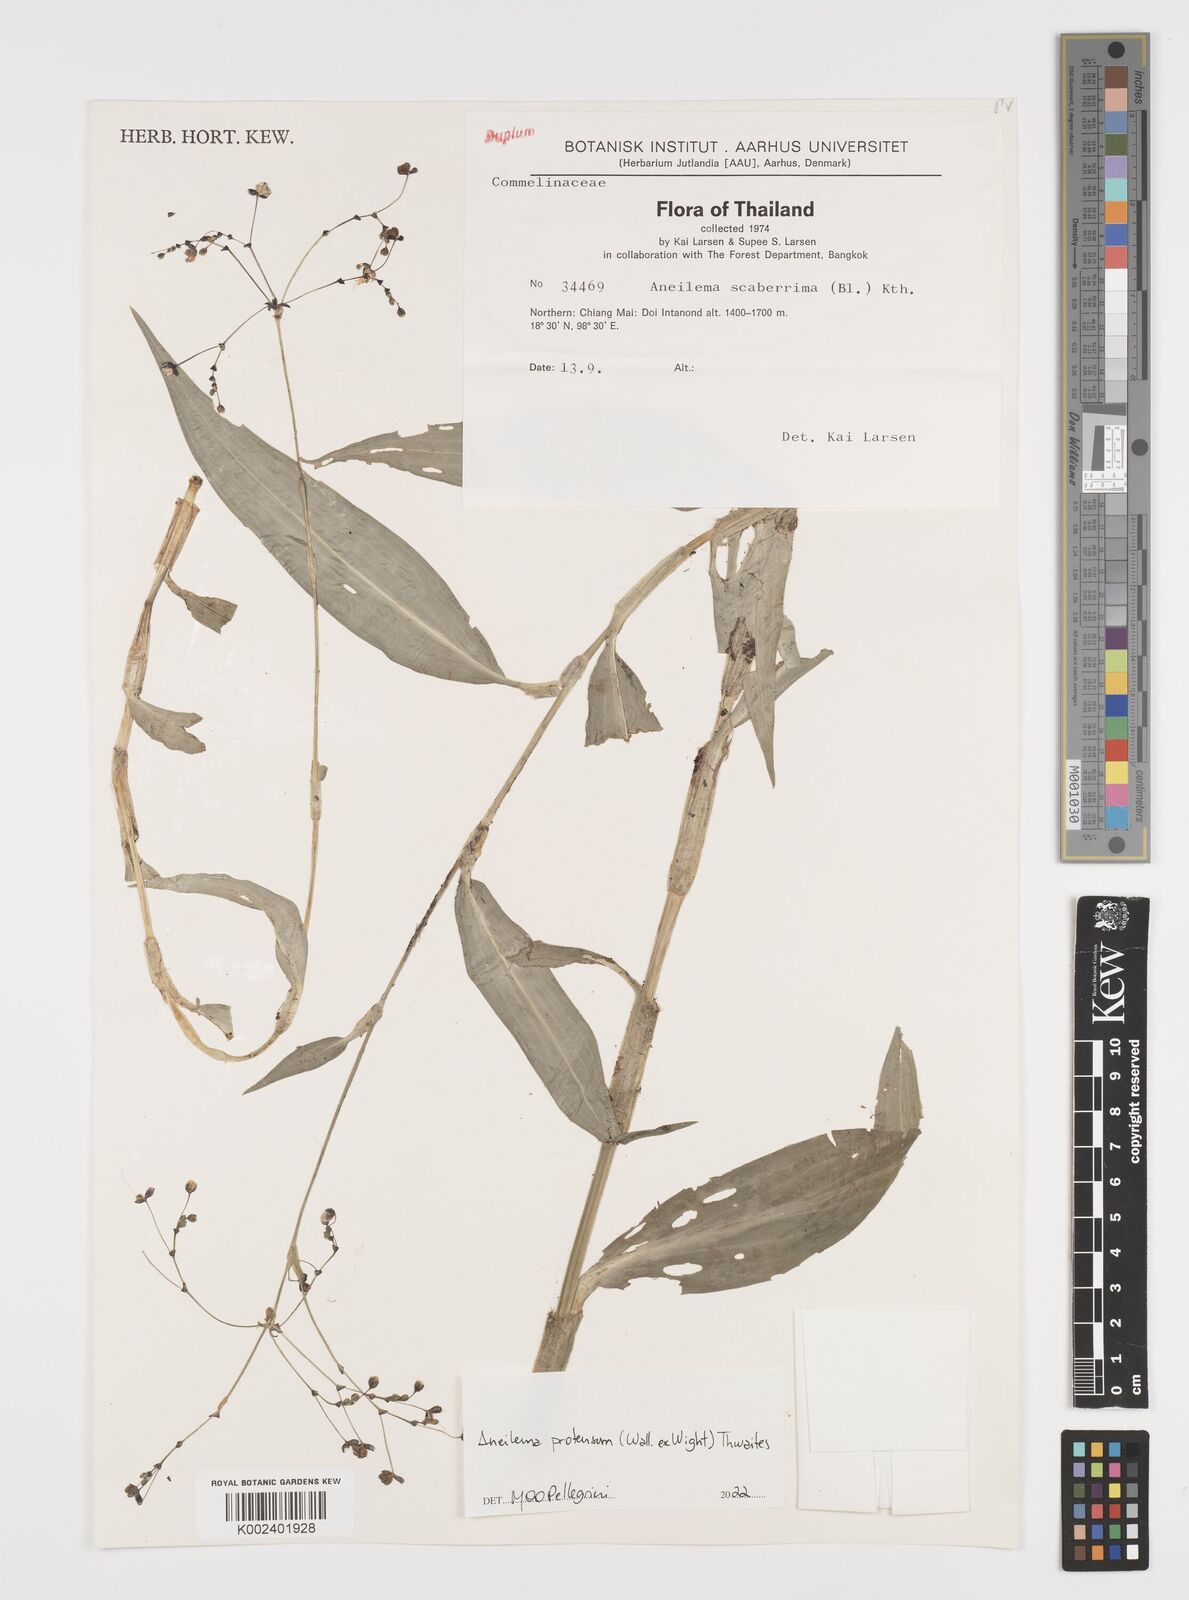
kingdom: Plantae
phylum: Tracheophyta
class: Liliopsida
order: Commelinales
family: Commelinaceae
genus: Rhopalephora
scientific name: Rhopalephora
